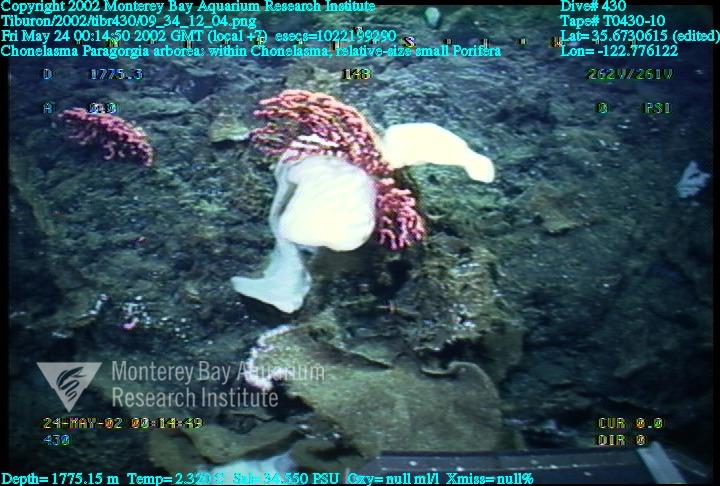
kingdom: Animalia
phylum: Porifera
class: Hexactinellida
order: Sceptrulophora
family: Euretidae
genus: Chonelasma
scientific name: Chonelasma
